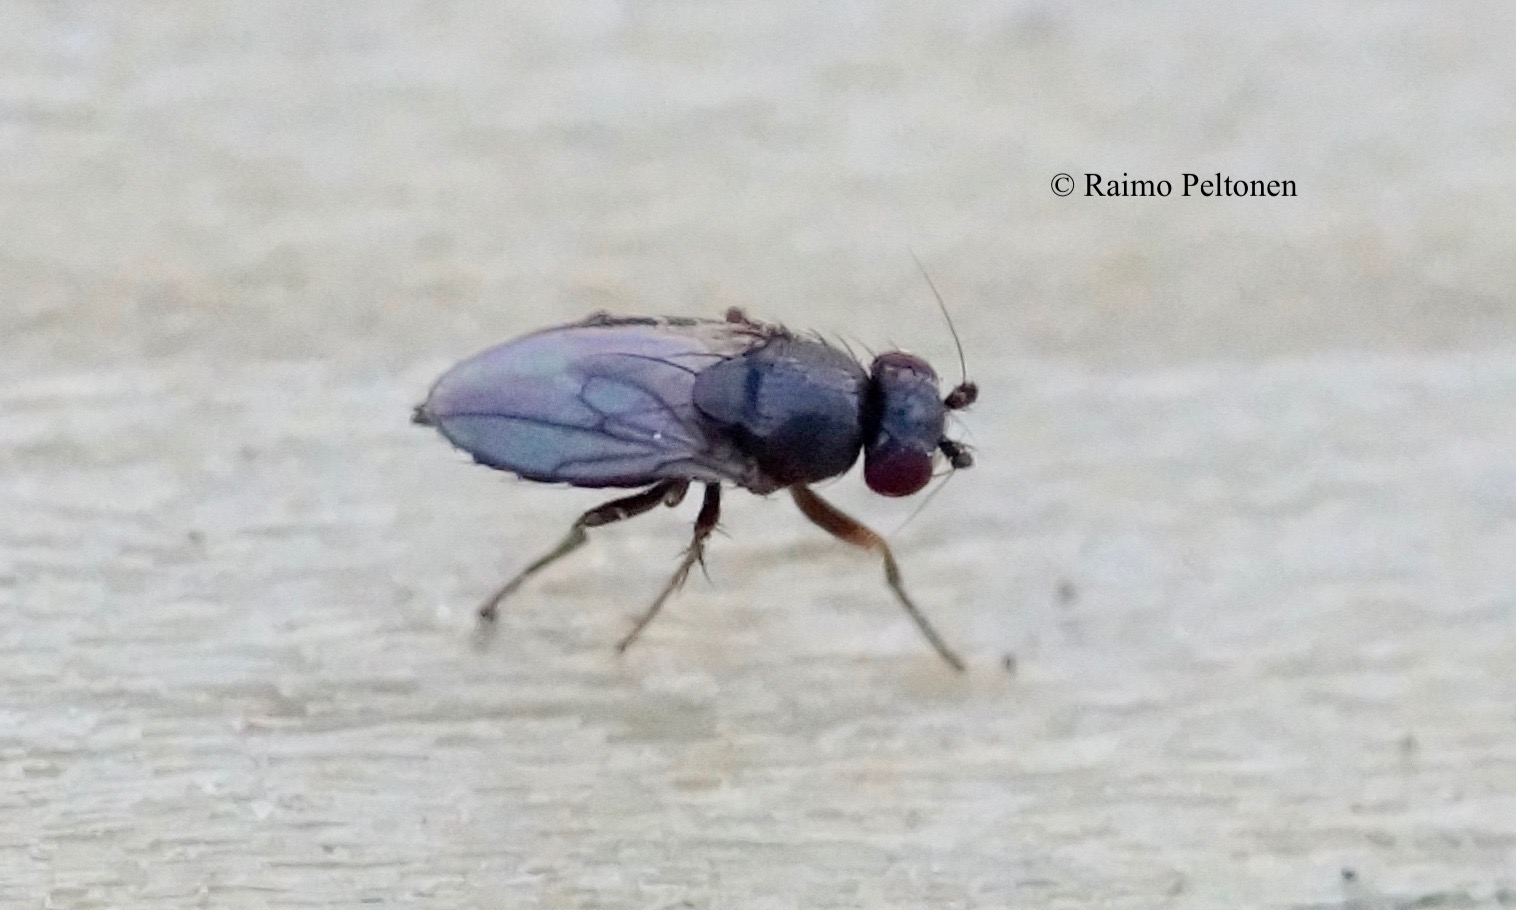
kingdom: Animalia
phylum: Arthropoda
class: Insecta
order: Diptera
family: Sphaeroceridae
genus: Minilimosina
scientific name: Minilimosina
